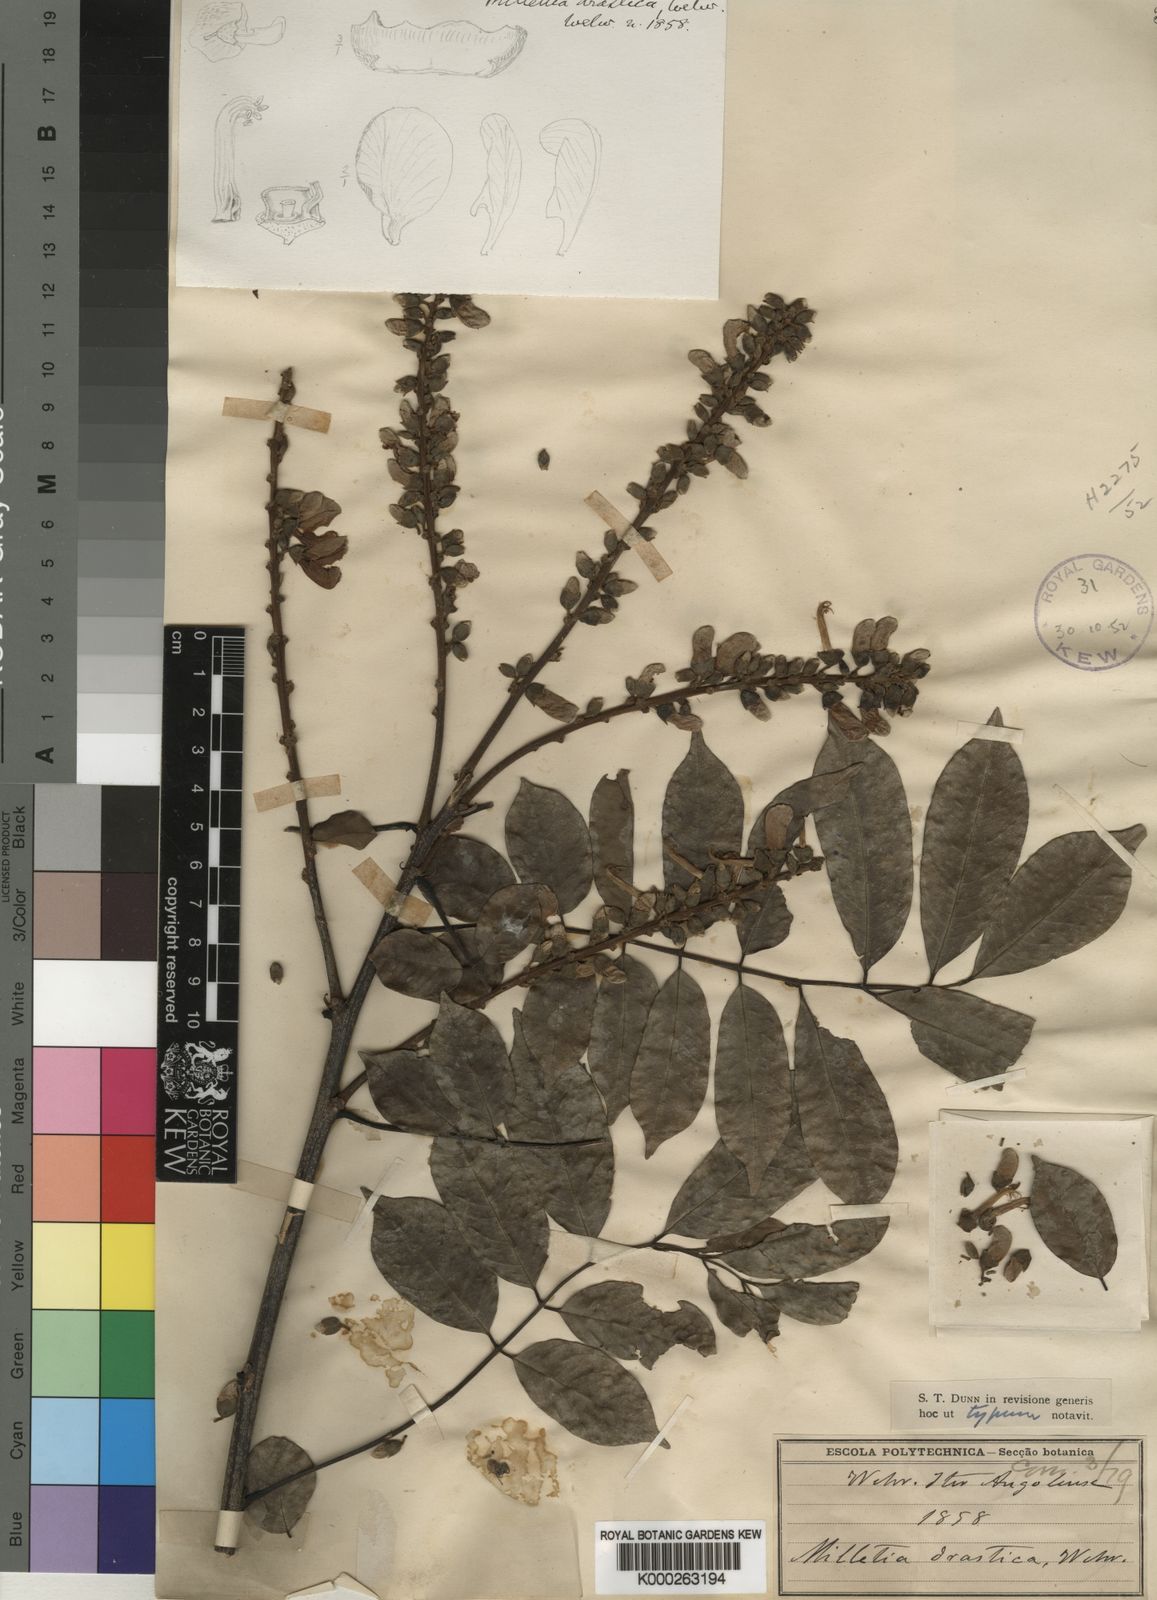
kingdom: Plantae
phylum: Tracheophyta
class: Magnoliopsida
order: Fabales
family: Fabaceae
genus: Millettia
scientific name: Millettia
